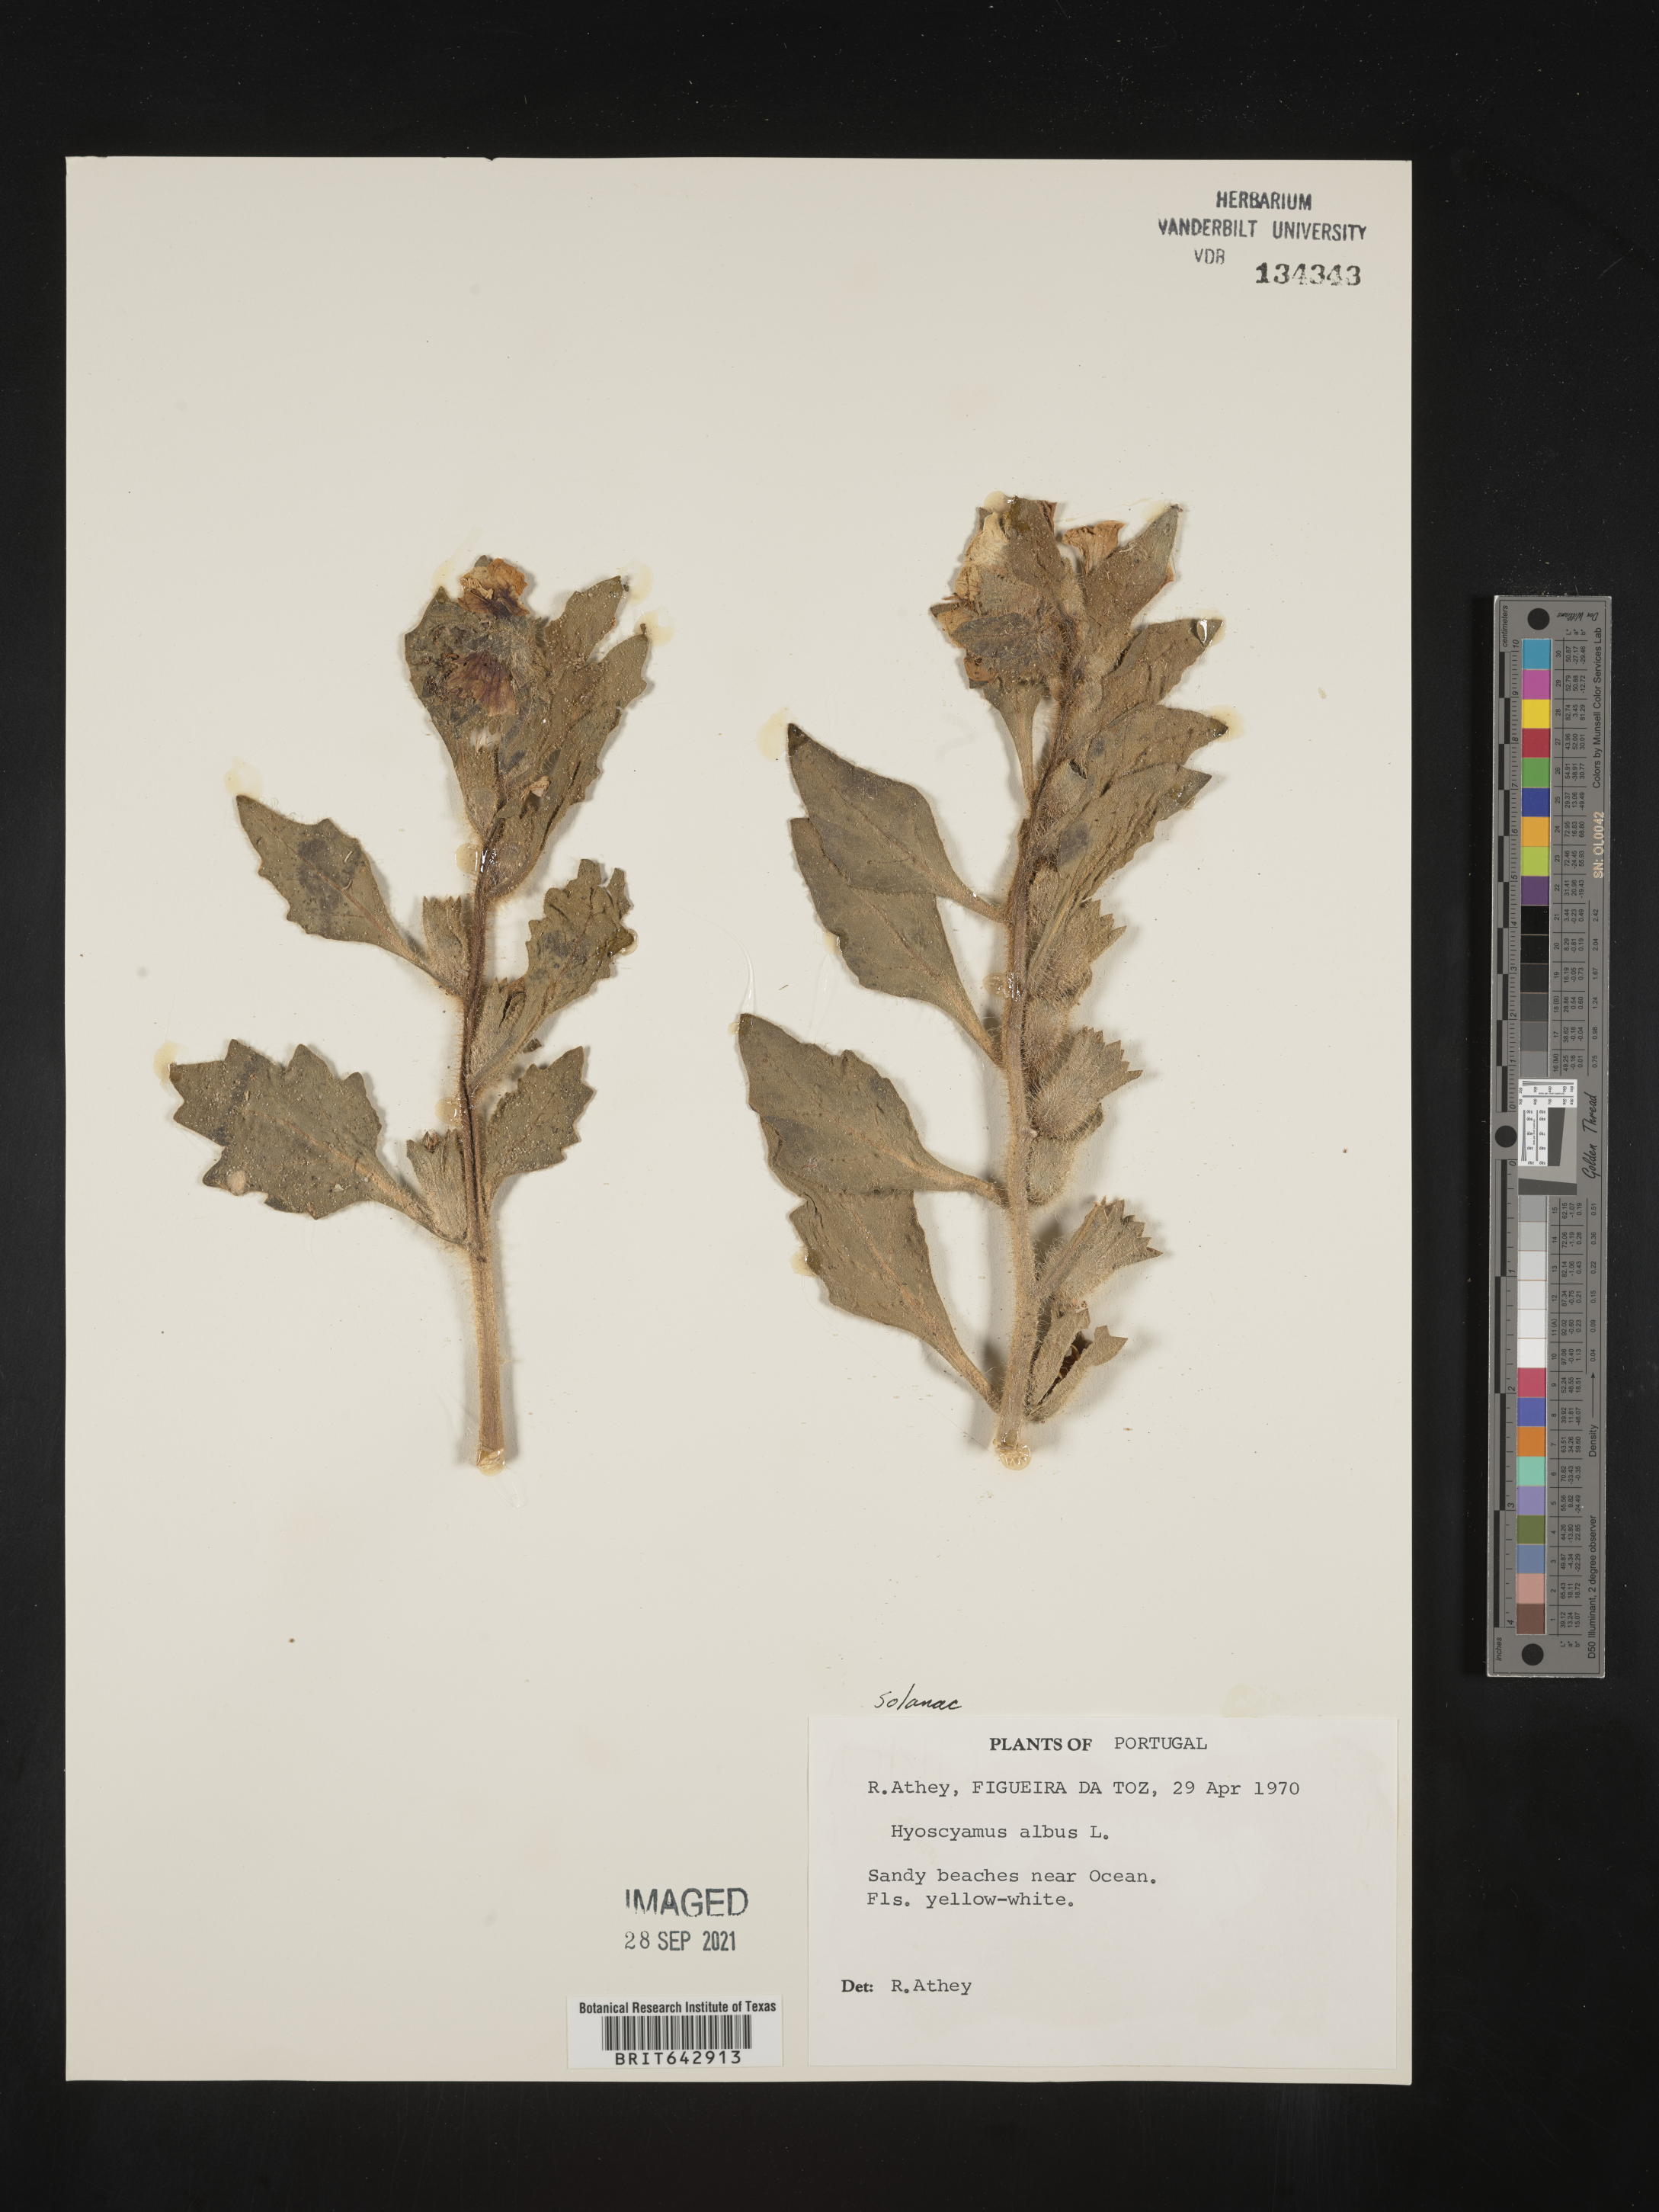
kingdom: Plantae
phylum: Tracheophyta
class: Magnoliopsida
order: Solanales
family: Solanaceae
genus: Hyoscyamus
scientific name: Hyoscyamus
